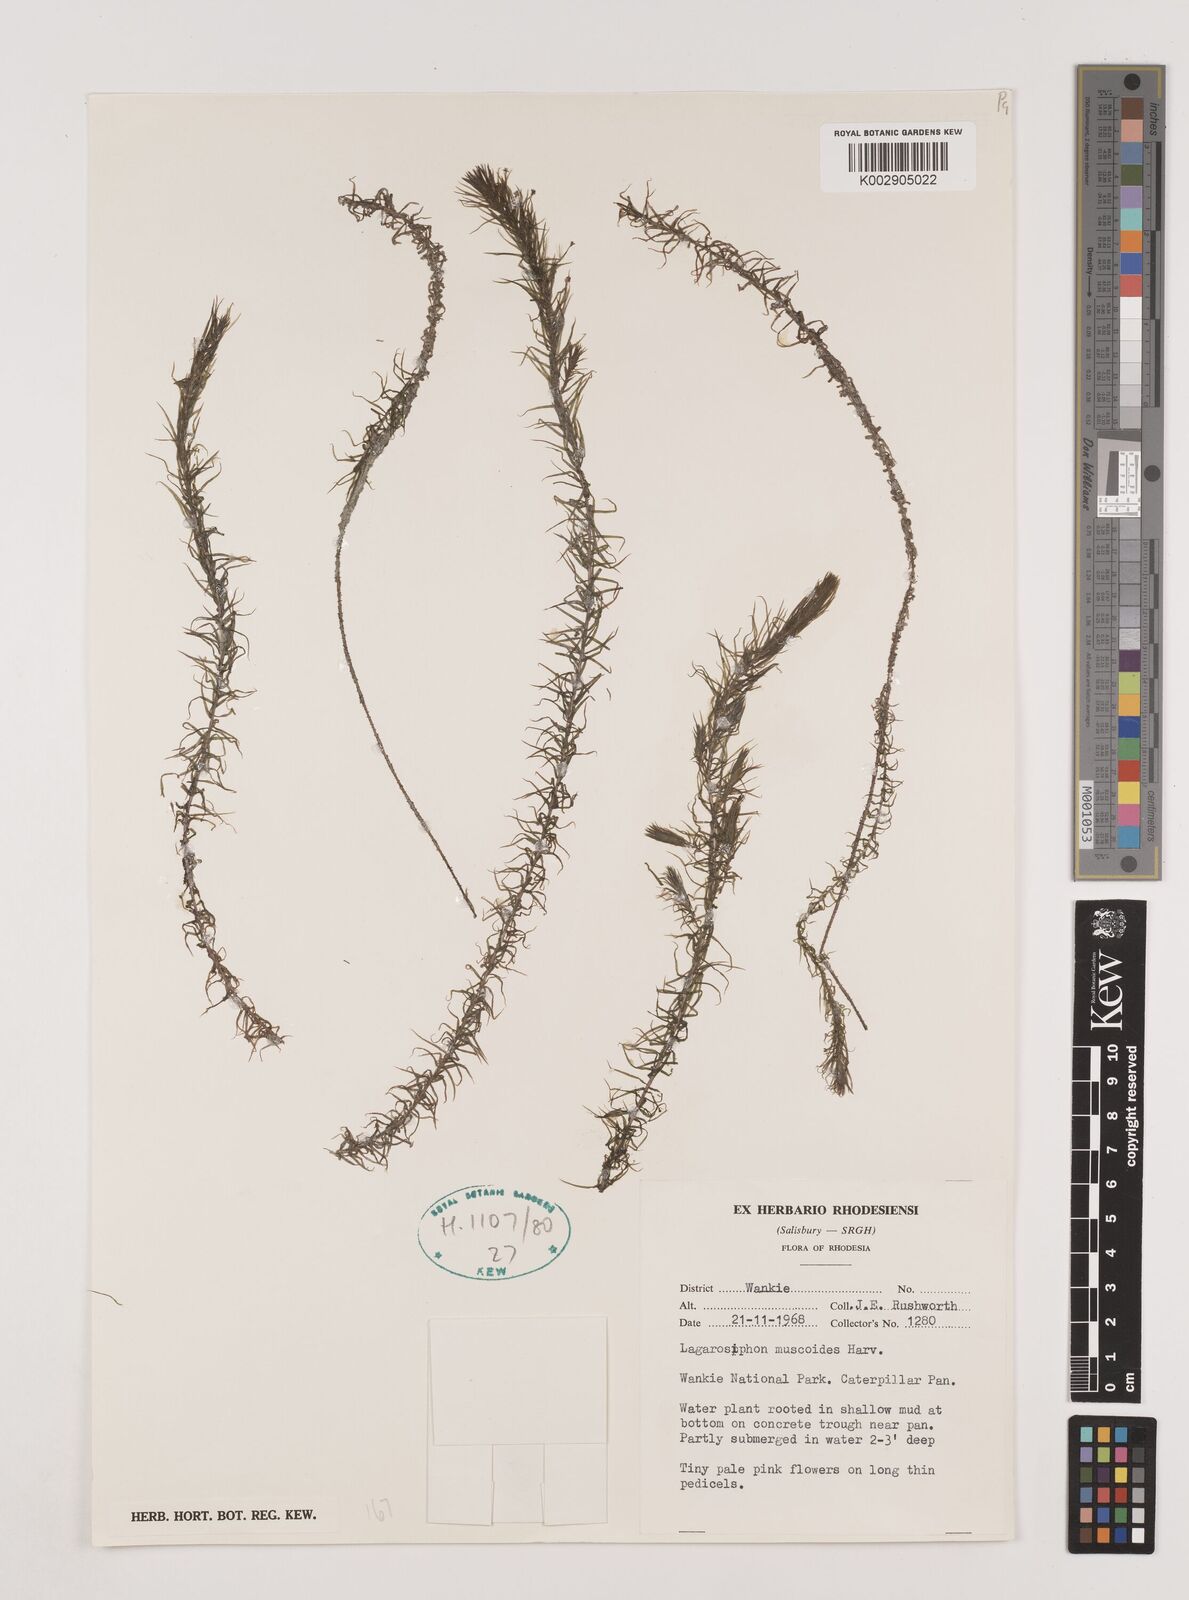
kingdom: Plantae
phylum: Tracheophyta
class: Liliopsida
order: Alismatales
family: Hydrocharitaceae
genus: Lagarosiphon
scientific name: Lagarosiphon muscoides
